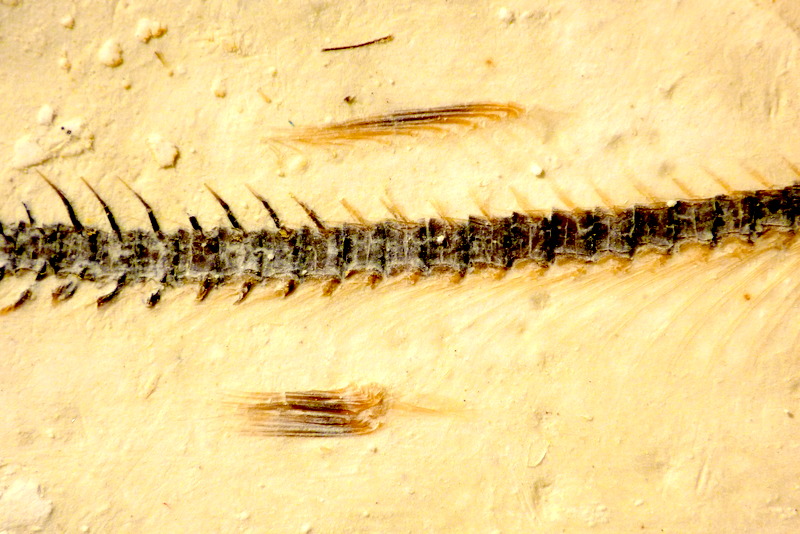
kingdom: Animalia
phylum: Chordata
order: Salmoniformes
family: Orthogonikleithridae
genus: Orthogonikleithrus
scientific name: Orthogonikleithrus hoelli
